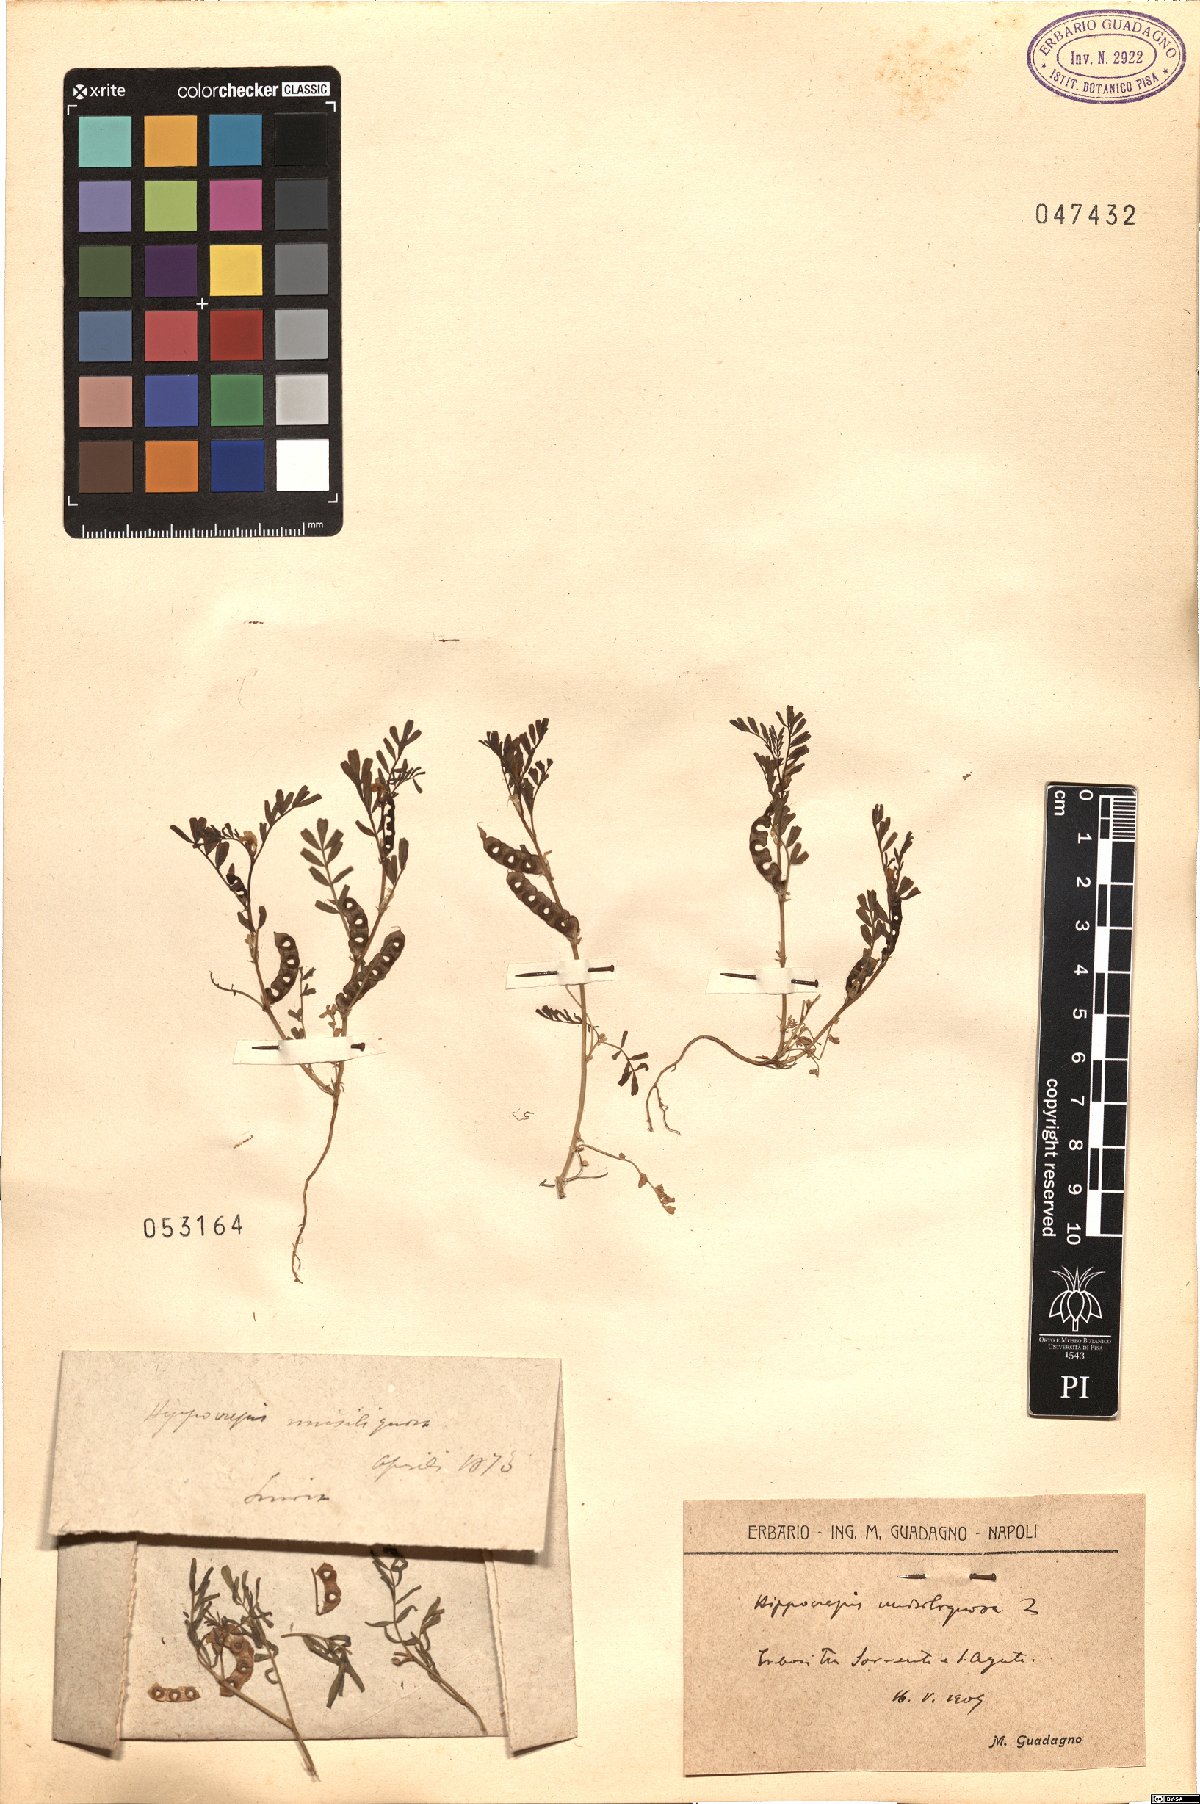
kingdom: Plantae
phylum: Tracheophyta
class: Magnoliopsida
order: Fabales
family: Fabaceae
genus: Hippocrepis
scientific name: Hippocrepis unisiliquosa
